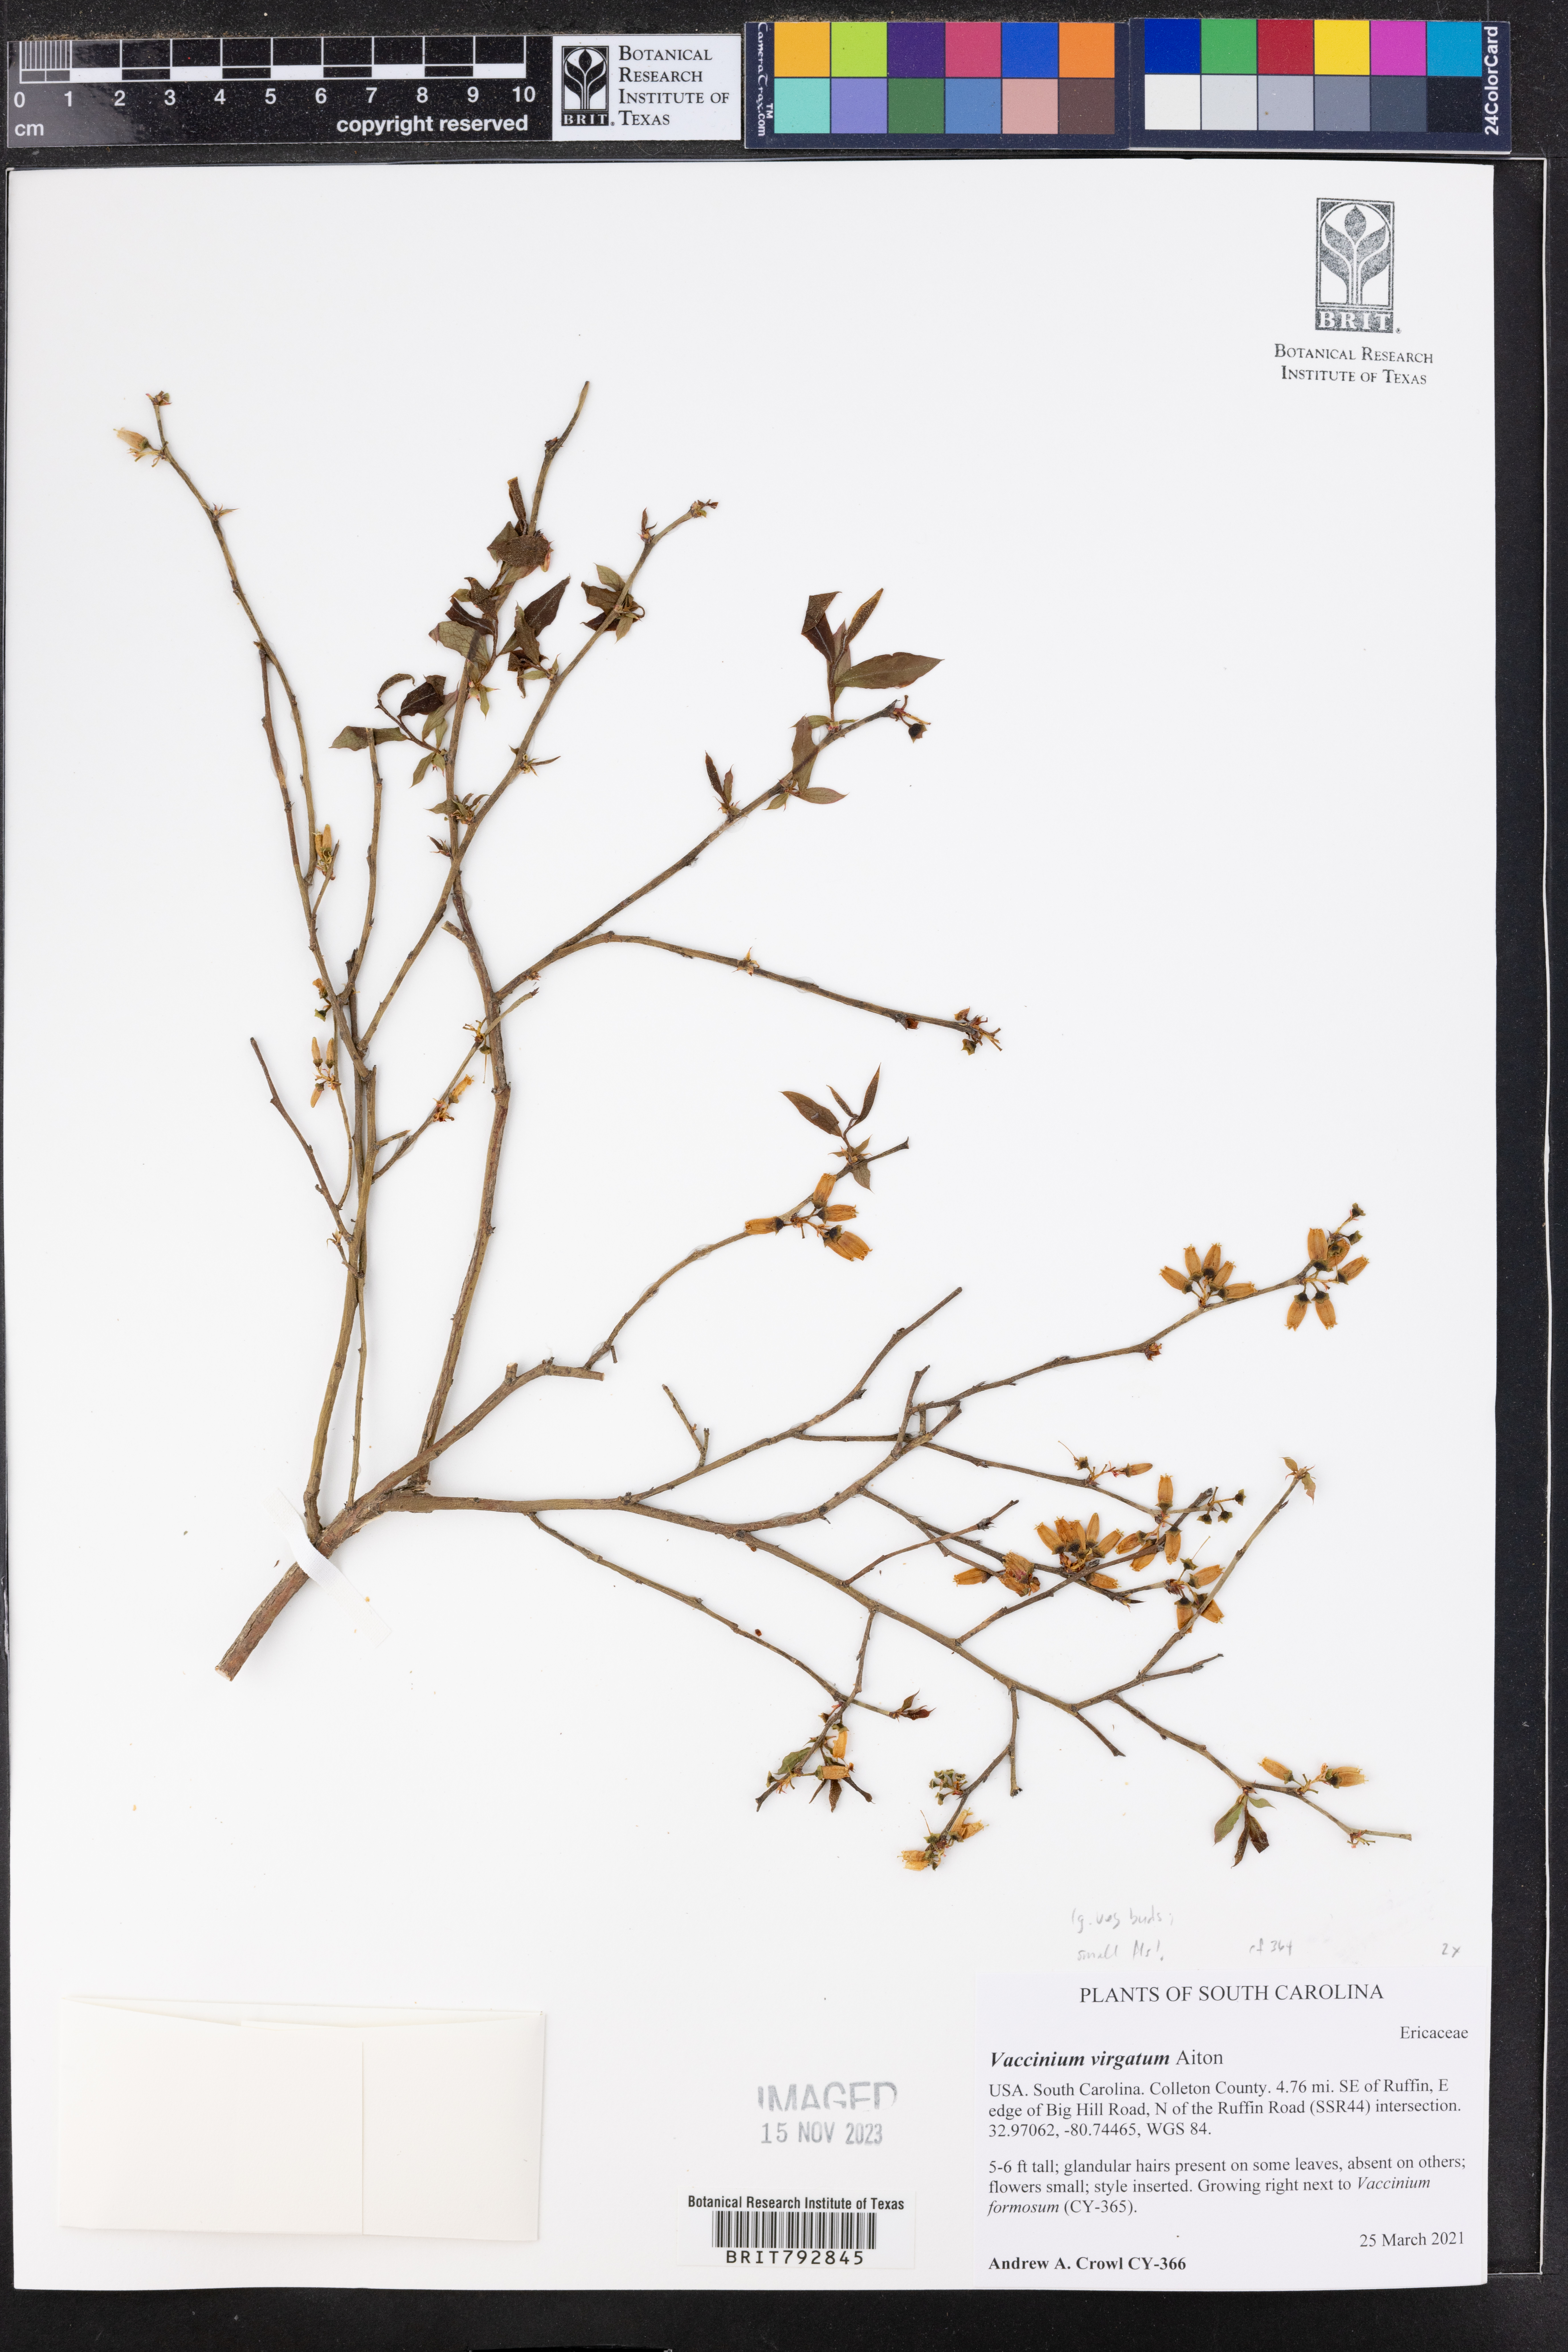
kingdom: Plantae
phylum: Tracheophyta
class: Magnoliopsida
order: Ericales
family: Ericaceae
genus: Vaccinium
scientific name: Vaccinium corymbosum
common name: Blueberry
